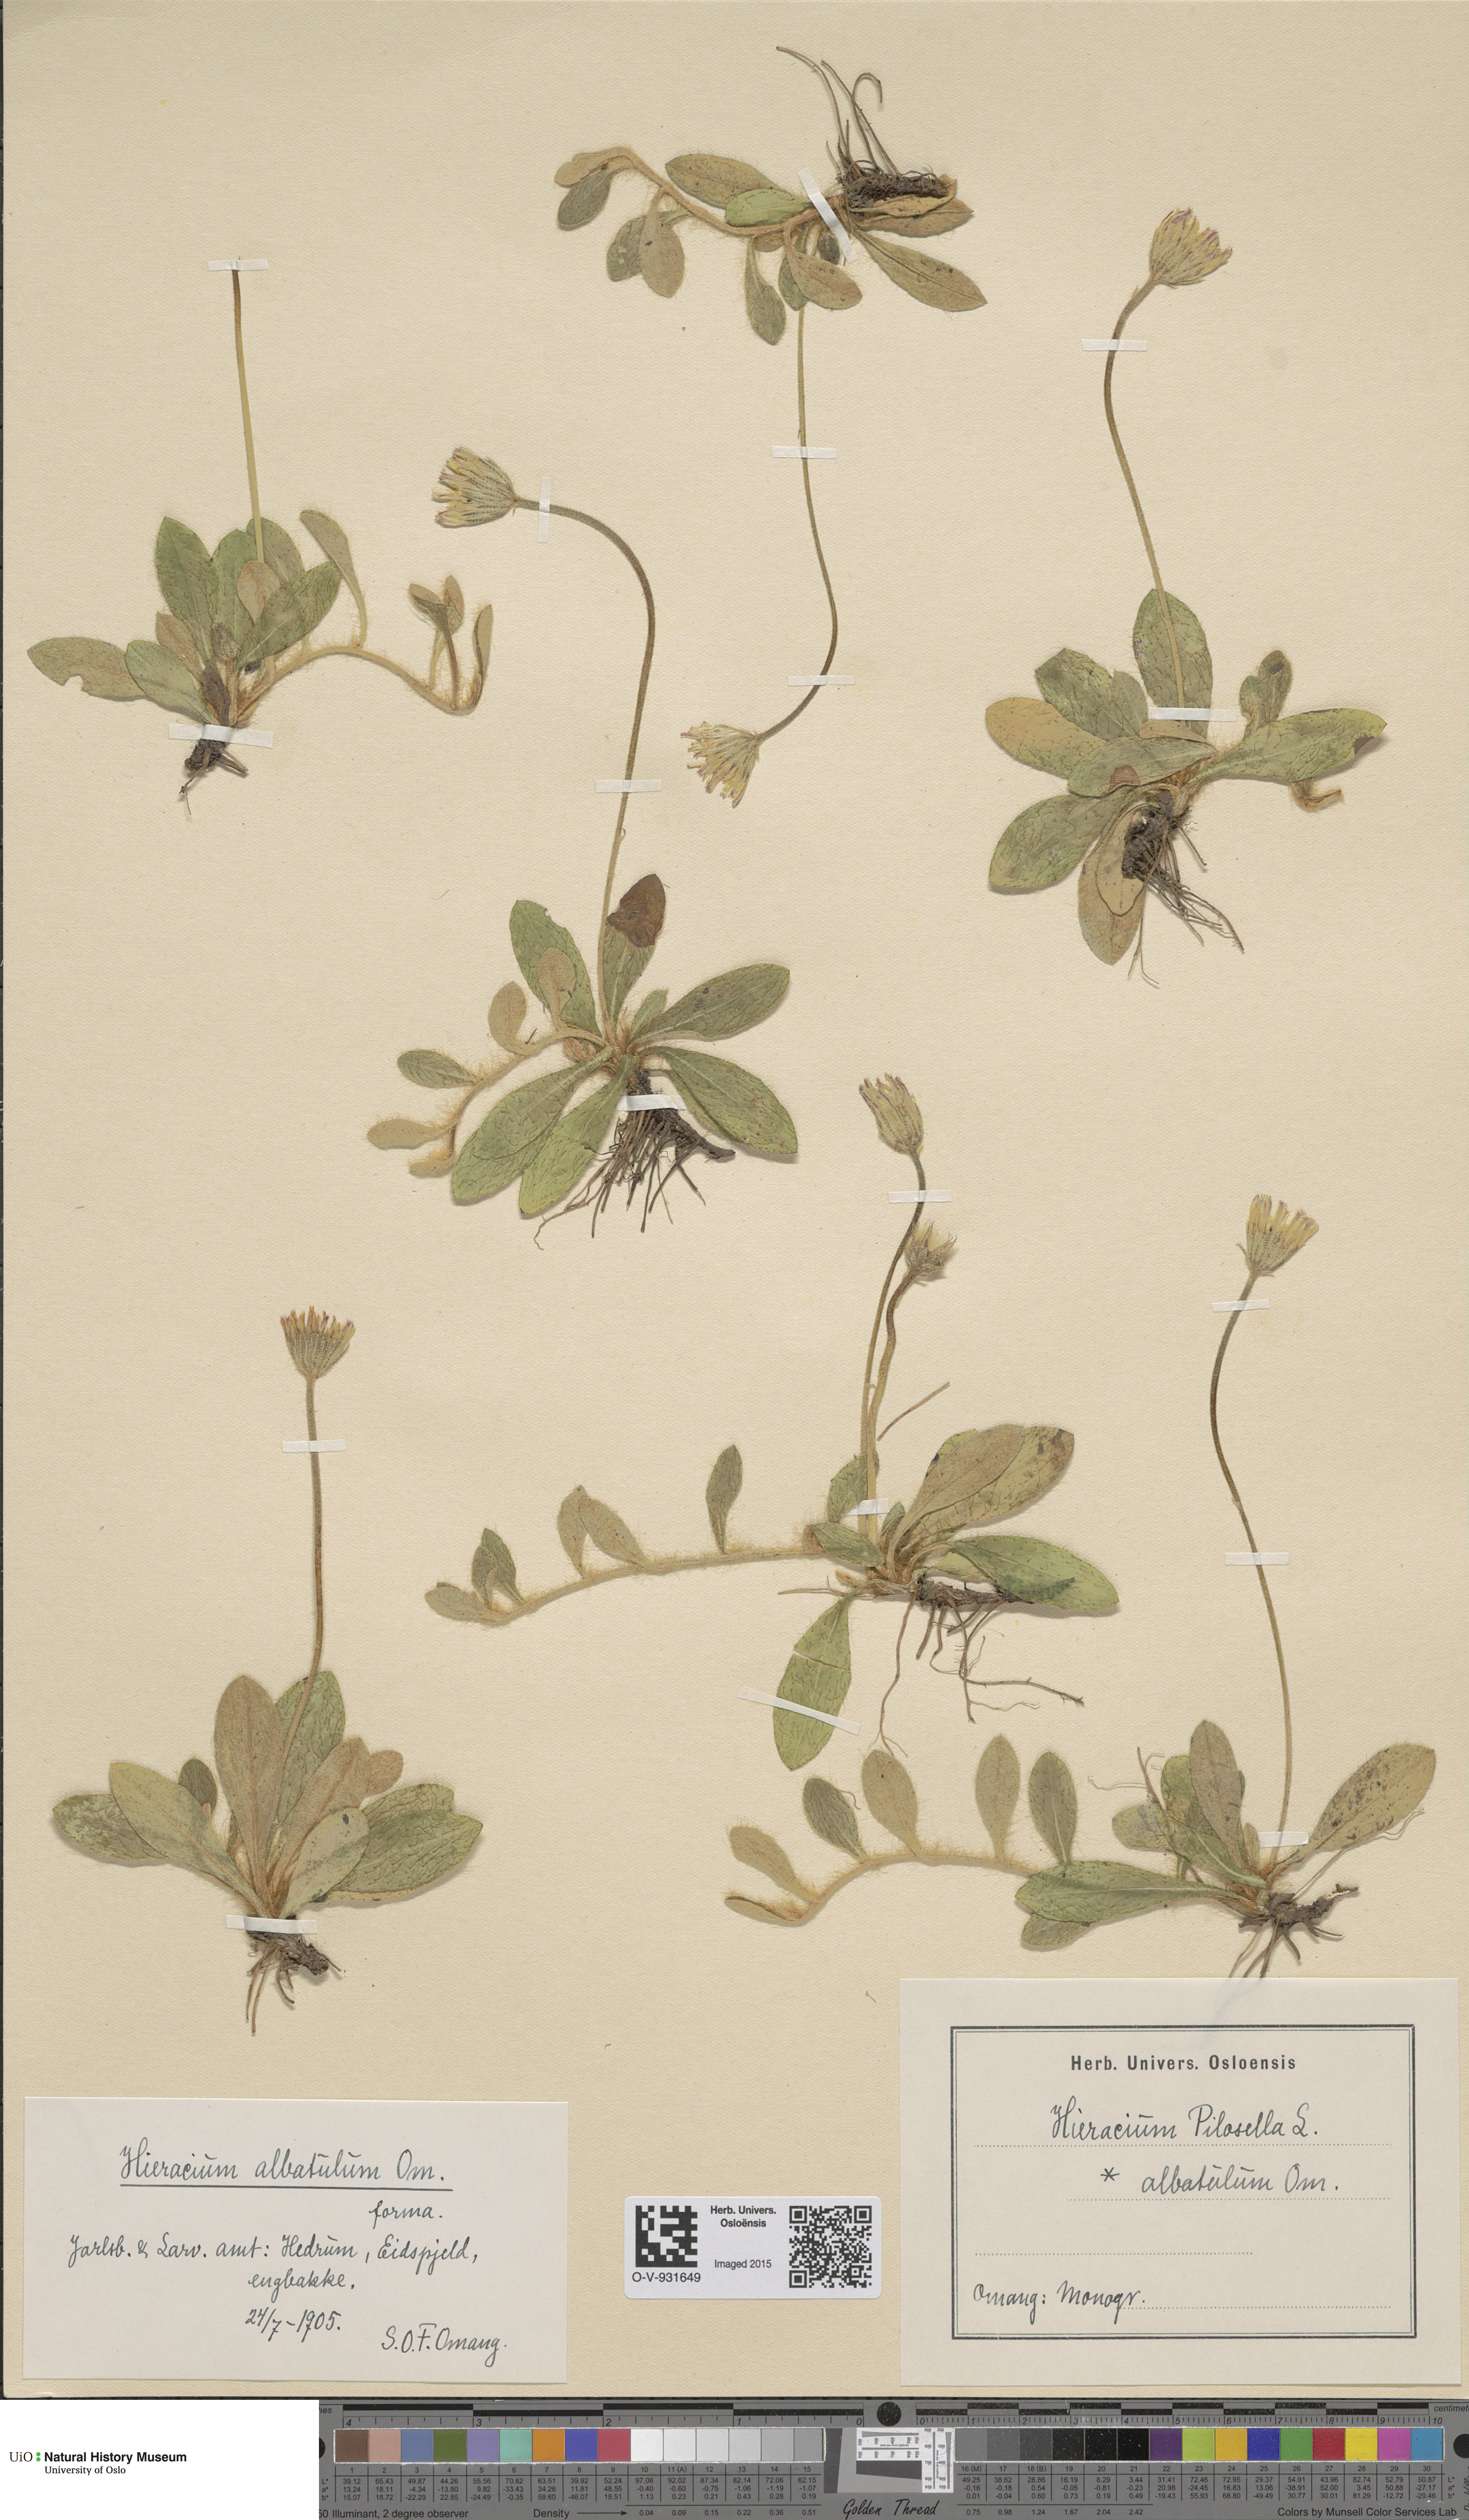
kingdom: Plantae
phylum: Tracheophyta
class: Magnoliopsida
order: Asterales
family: Asteraceae
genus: Pilosella
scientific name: Pilosella officinarum
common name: Mouse-ear hawkweed
